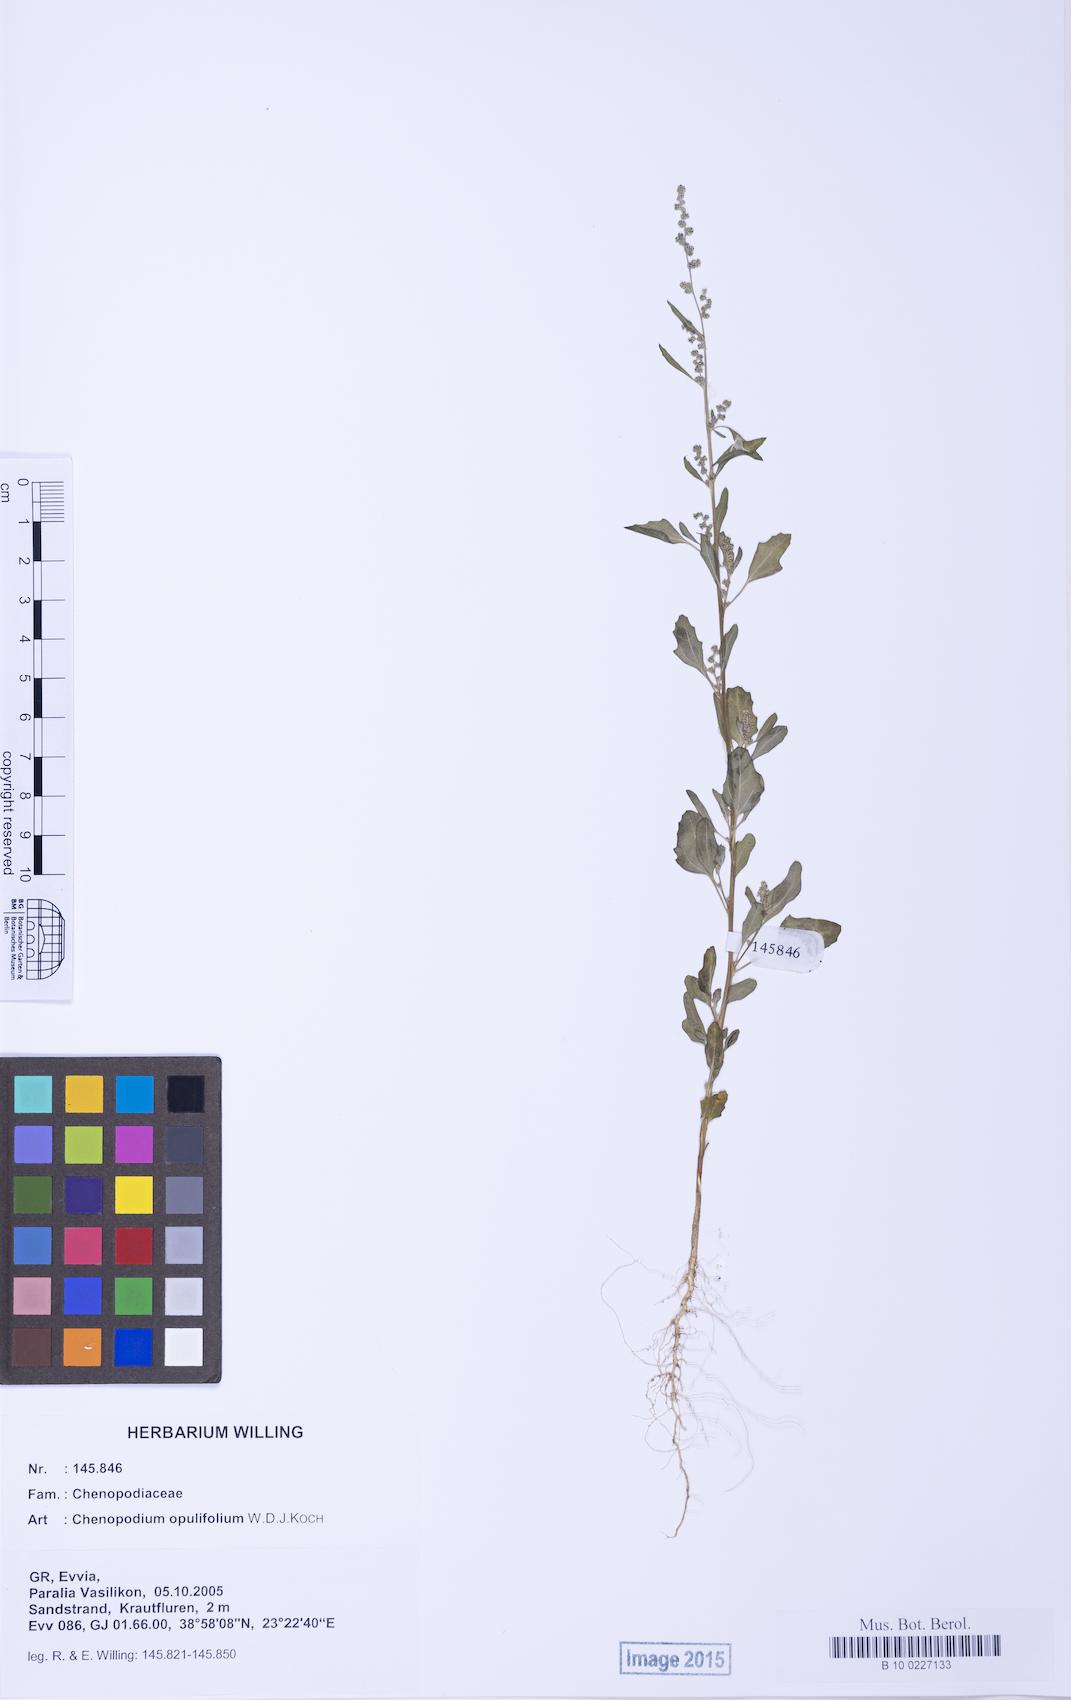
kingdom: Plantae
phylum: Tracheophyta
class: Magnoliopsida
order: Caryophyllales
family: Amaranthaceae
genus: Chenopodium
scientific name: Chenopodium album
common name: Fat-hen
